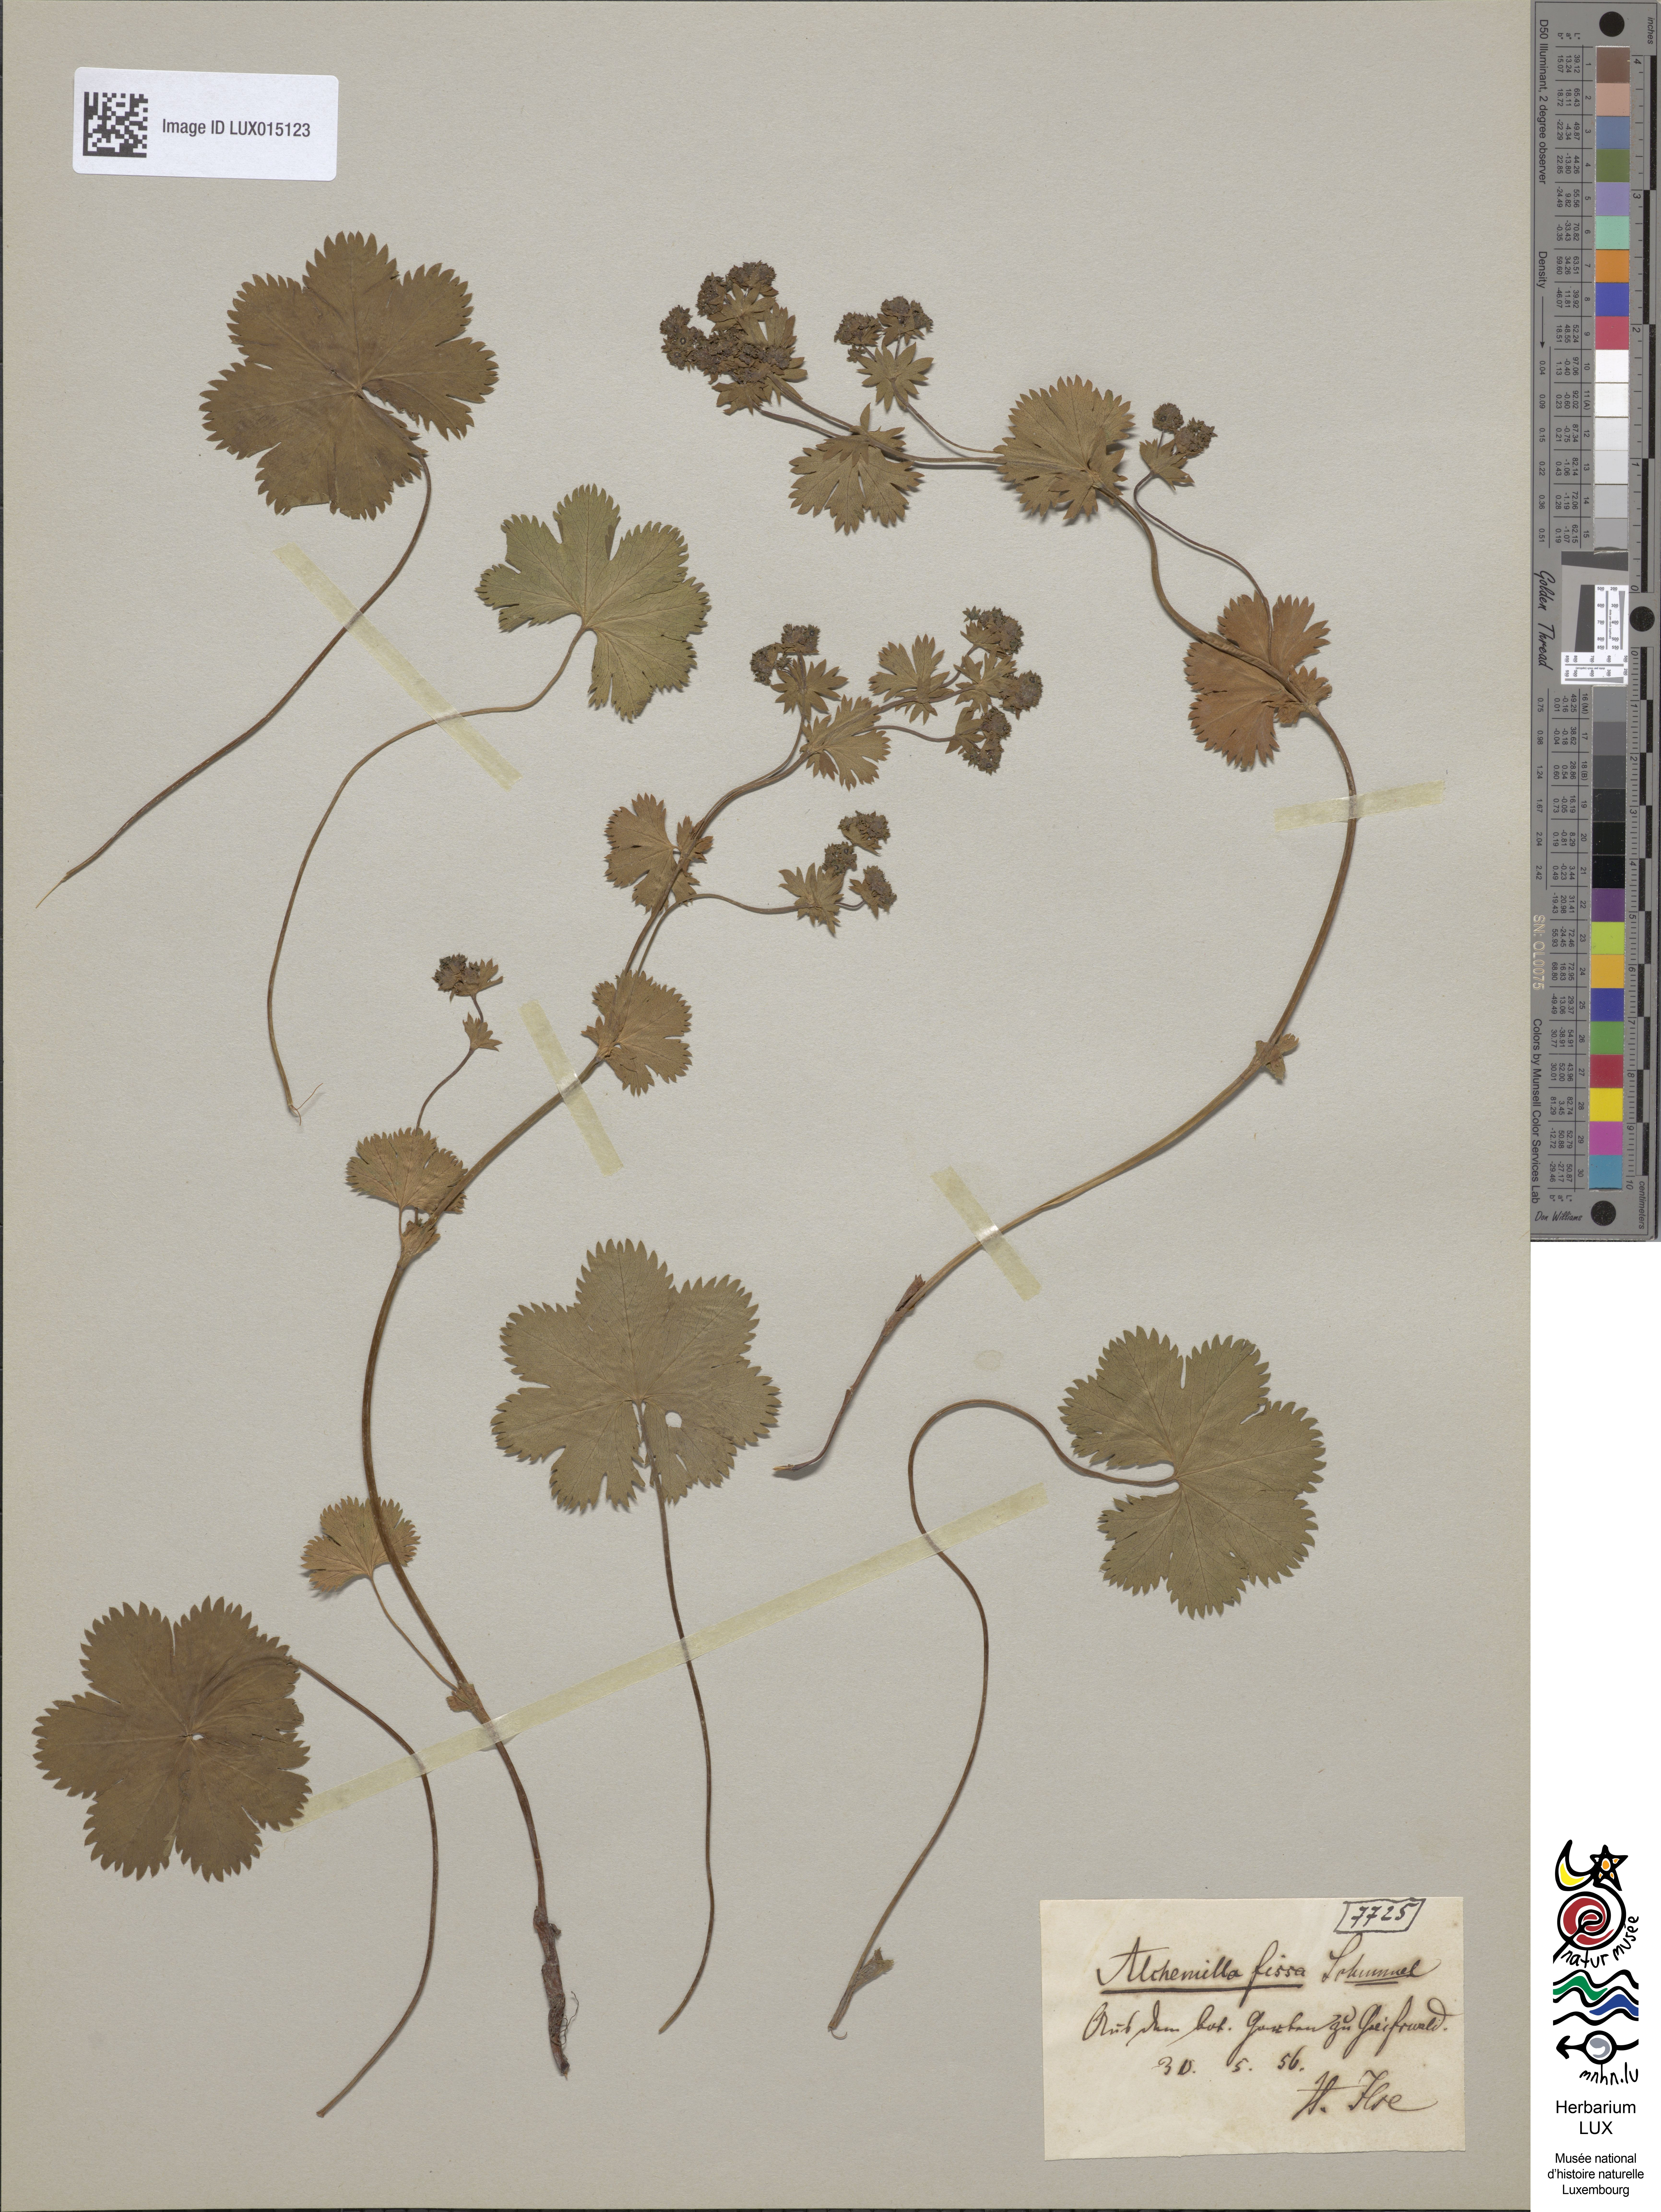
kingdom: Plantae
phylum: Tracheophyta
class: Magnoliopsida
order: Rosales
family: Rosaceae
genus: Alchemilla
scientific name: Alchemilla glaberrima
